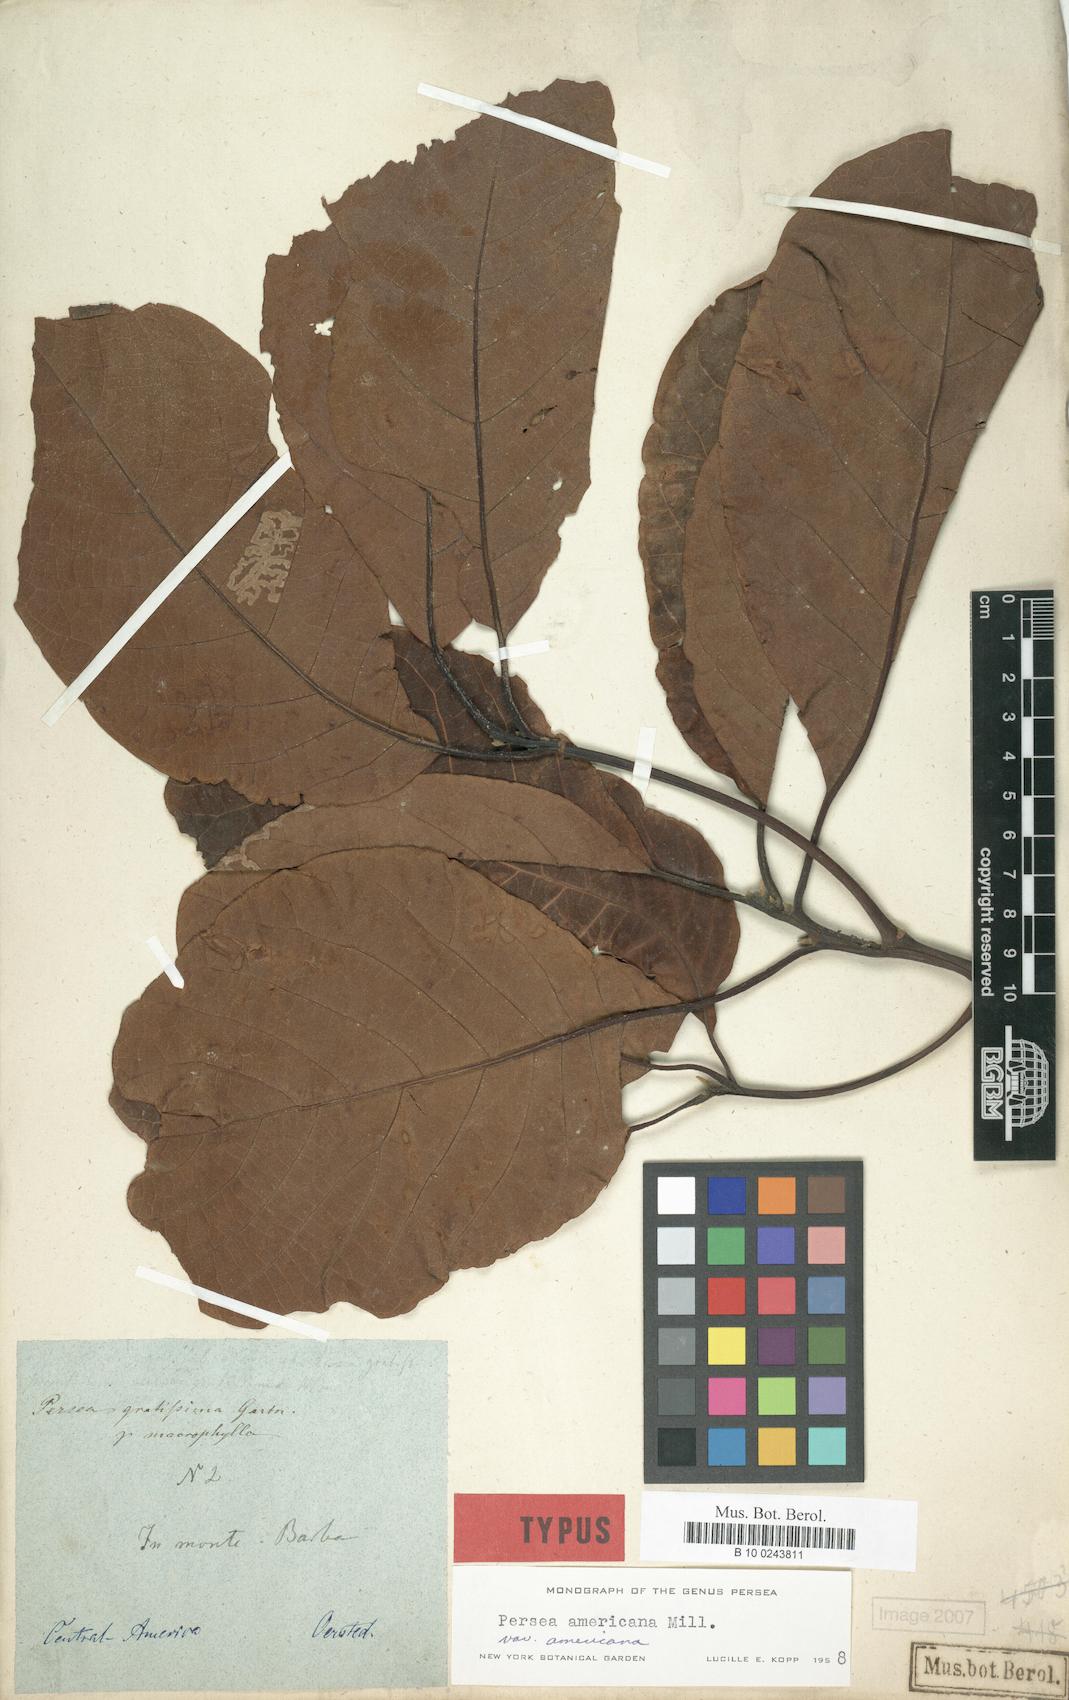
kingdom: Plantae
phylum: Tracheophyta
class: Magnoliopsida
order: Laurales
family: Lauraceae
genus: Persea
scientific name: Persea americana
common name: Avocado
